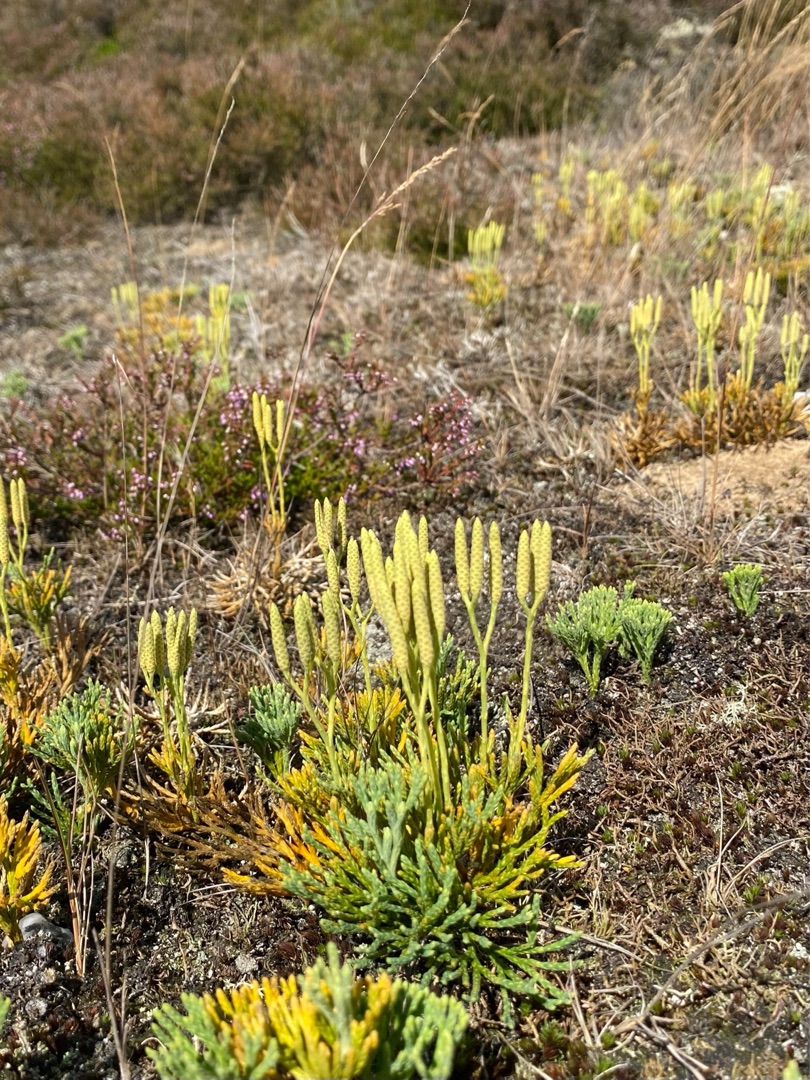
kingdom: Plantae
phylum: Tracheophyta
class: Lycopodiopsida
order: Lycopodiales
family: Lycopodiaceae
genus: Diphasiastrum
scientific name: Diphasiastrum tristachyum
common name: Cypres-ulvefod
